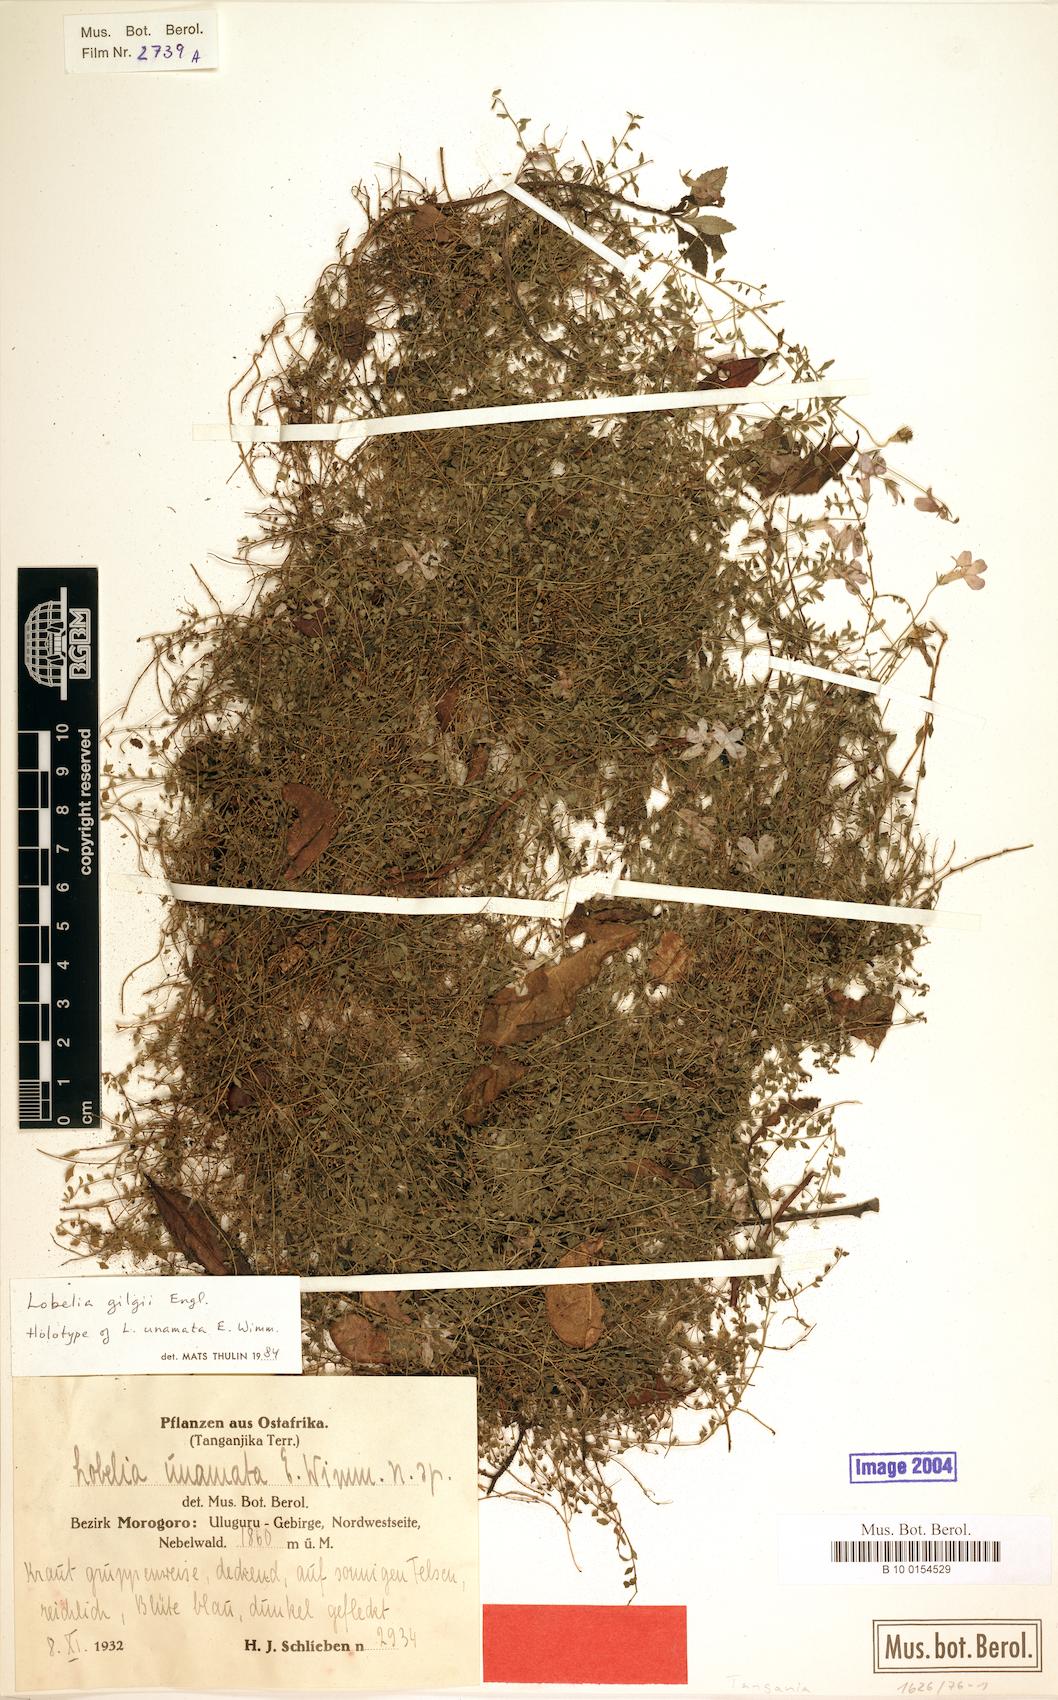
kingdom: Plantae
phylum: Tracheophyta
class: Magnoliopsida
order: Asterales
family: Campanulaceae
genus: Lobelia
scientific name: Lobelia gilgii
